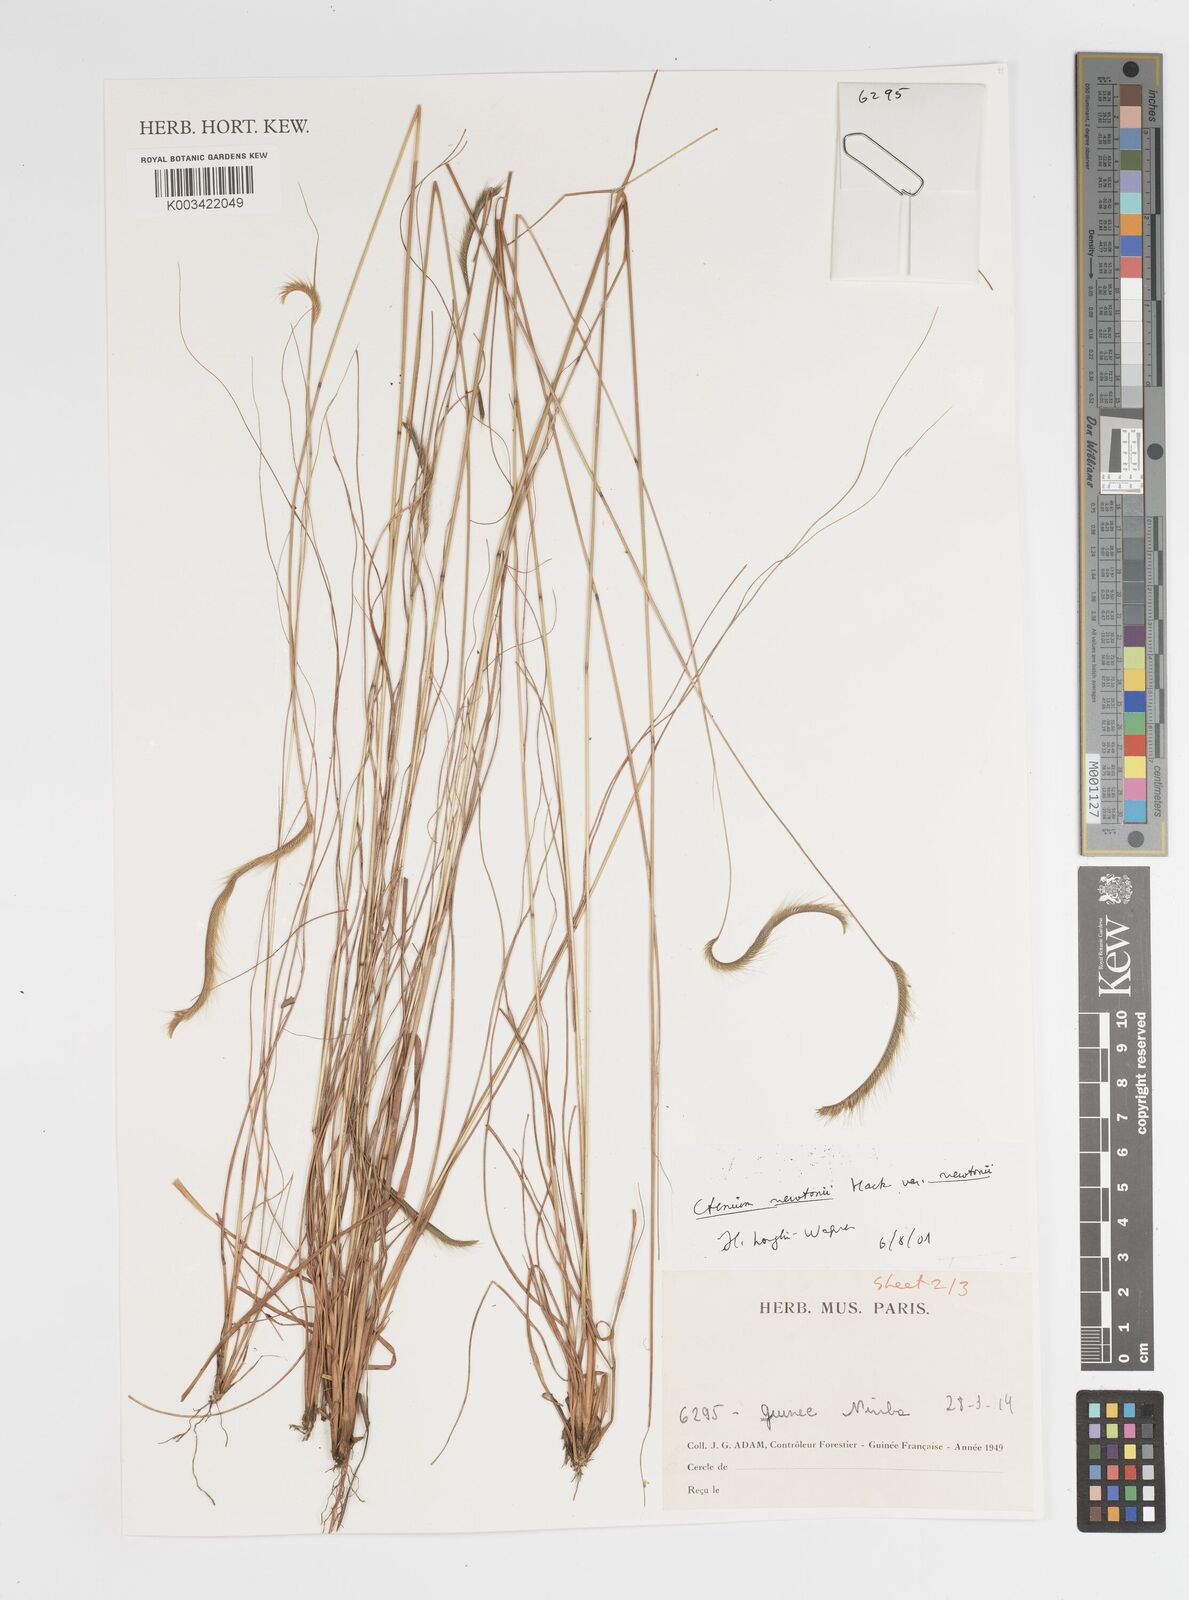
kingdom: Plantae
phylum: Tracheophyta
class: Liliopsida
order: Poales
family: Poaceae
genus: Ctenium
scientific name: Ctenium newtonii
